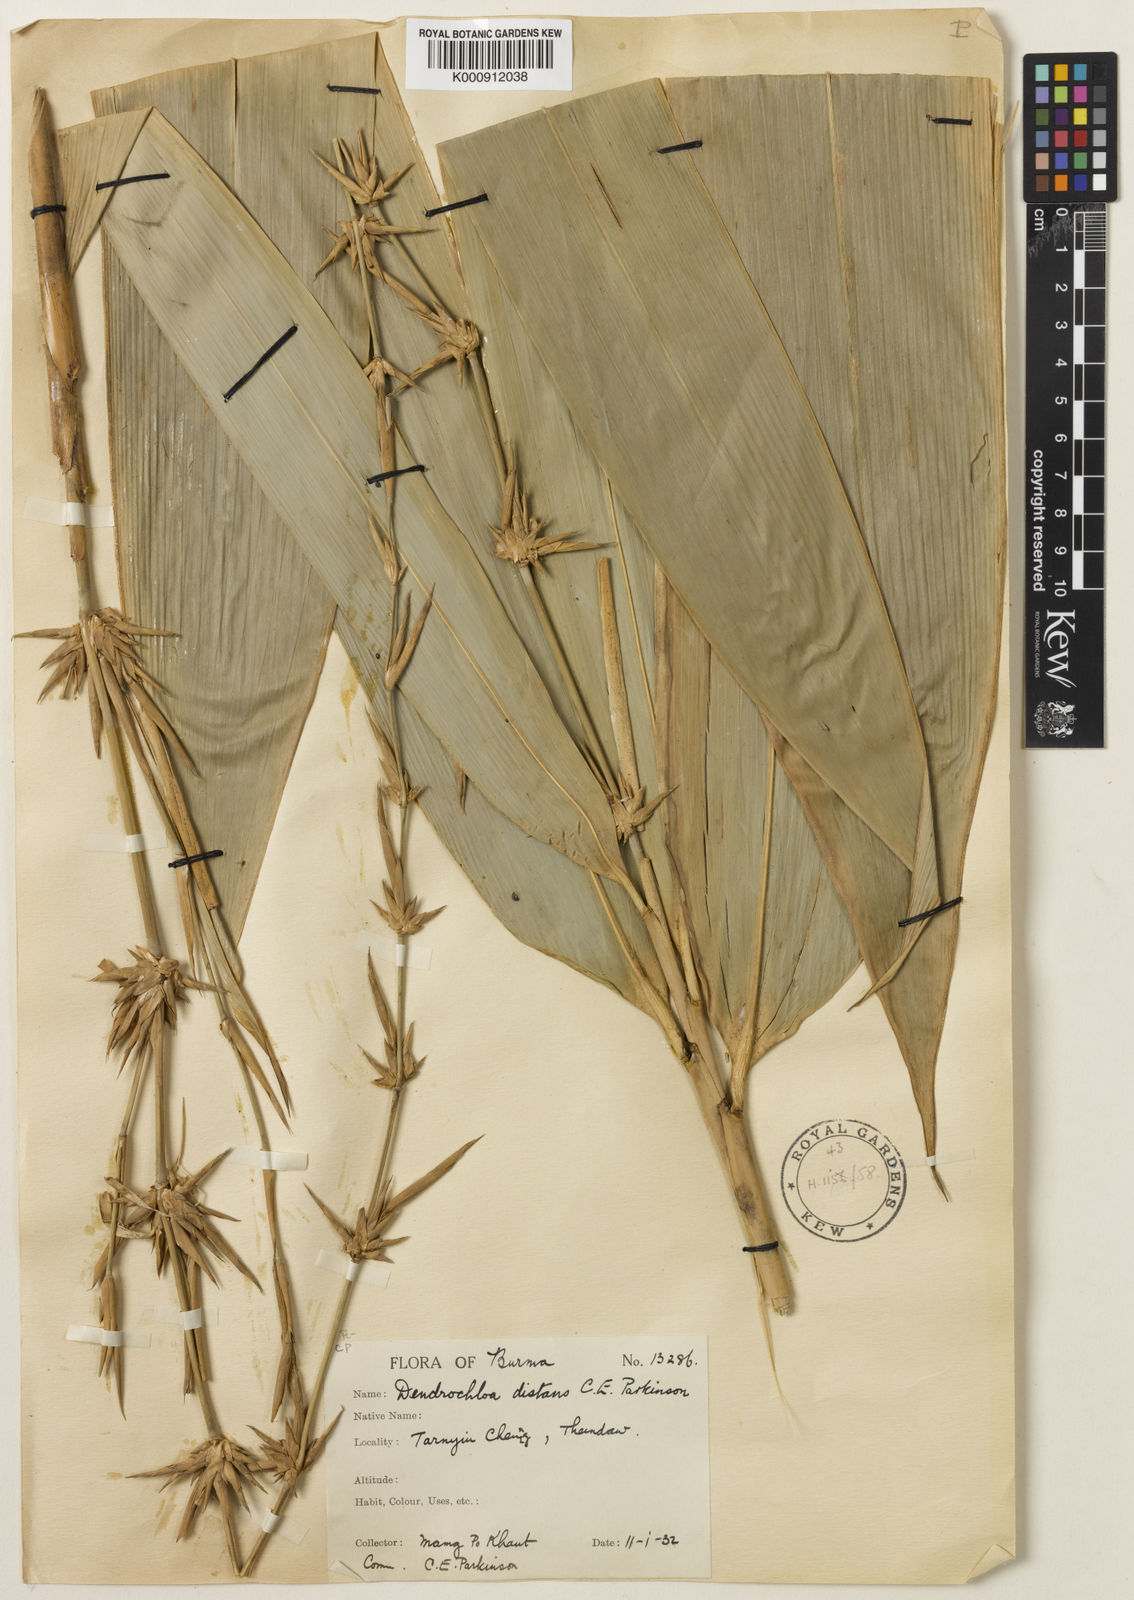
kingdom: Plantae
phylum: Tracheophyta
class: Liliopsida
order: Poales
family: Poaceae
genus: Schizostachyum
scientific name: Schizostachyum distans
